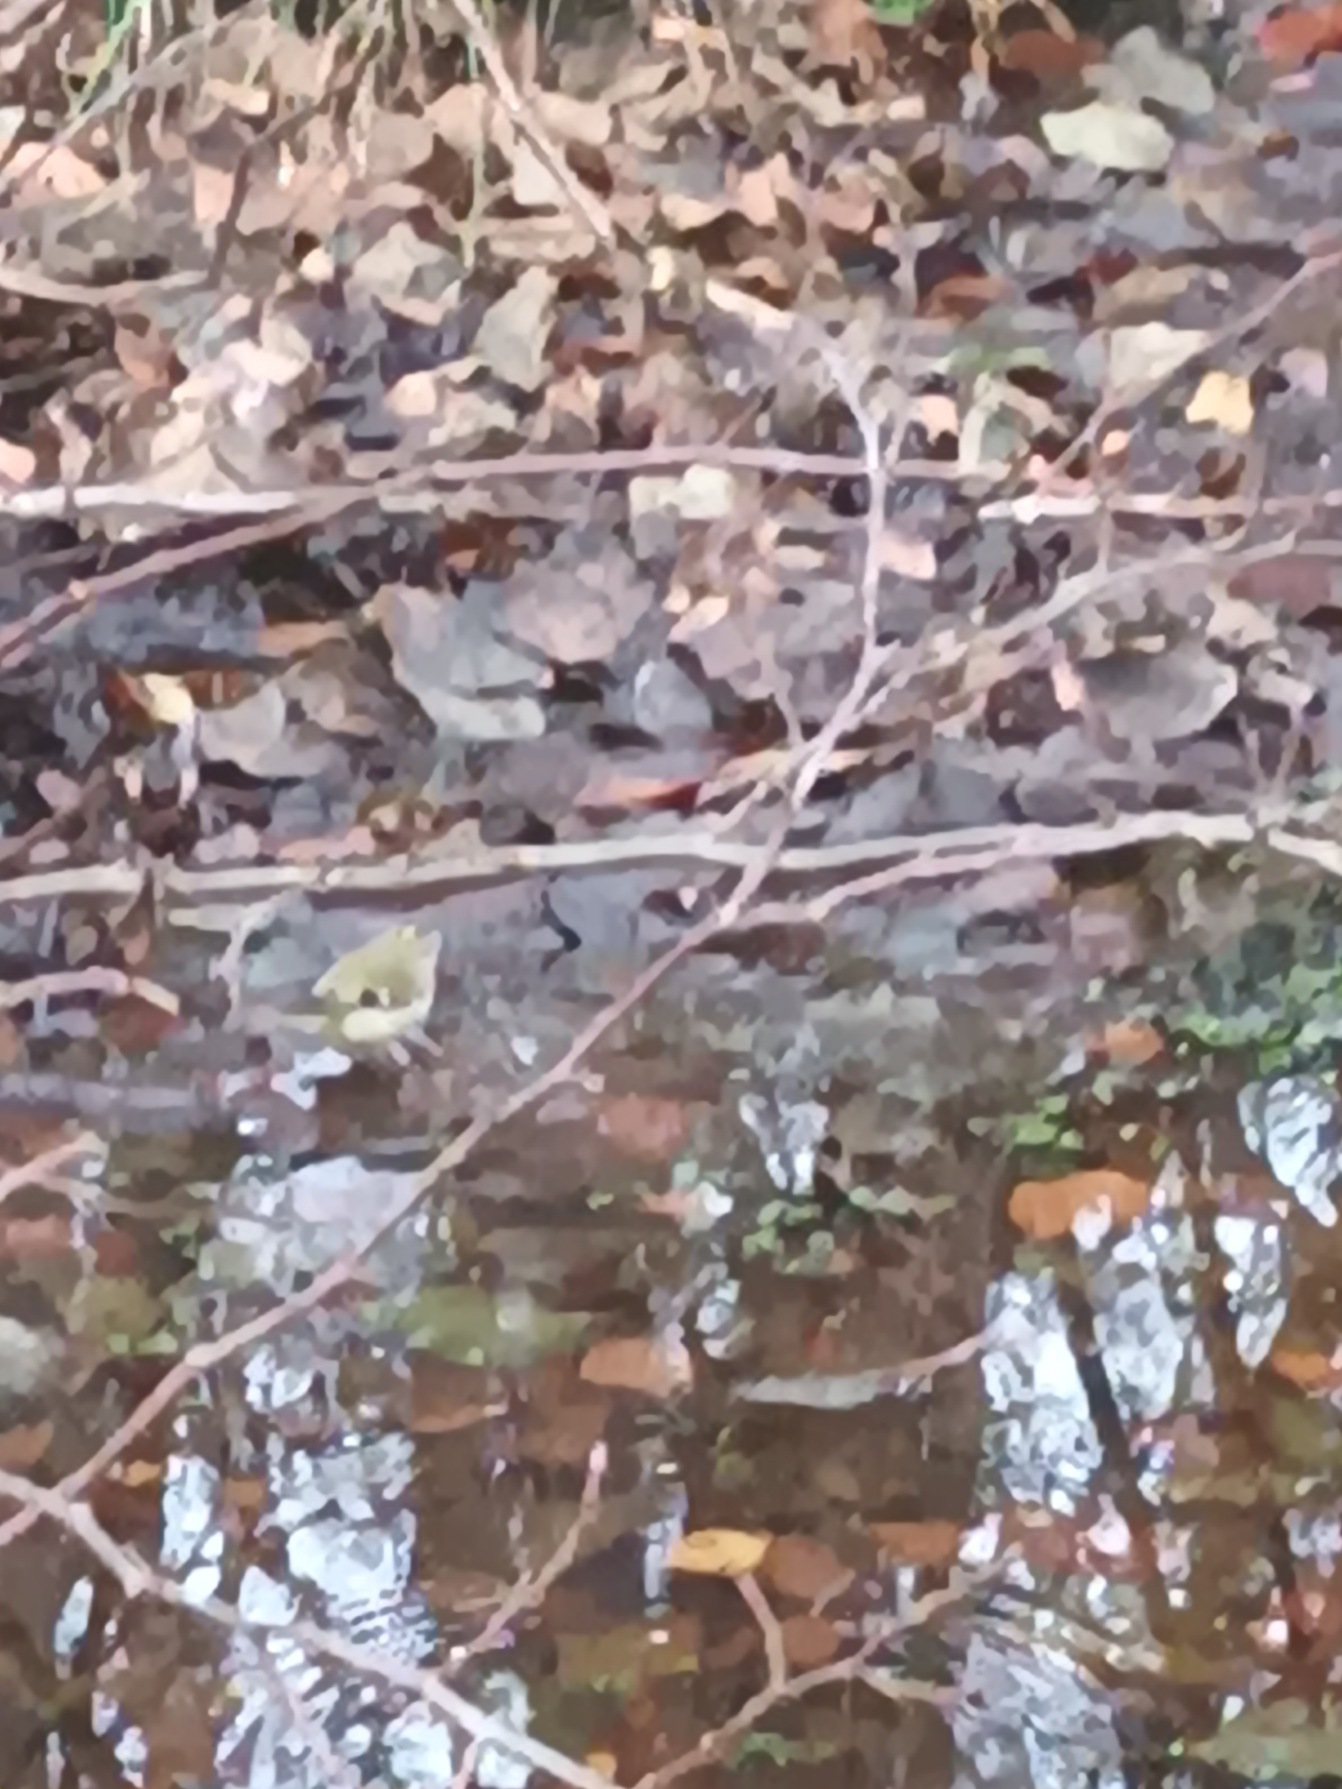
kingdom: Animalia
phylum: Chordata
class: Aves
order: Passeriformes
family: Regulidae
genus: Regulus
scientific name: Regulus regulus
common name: Fuglekonge
